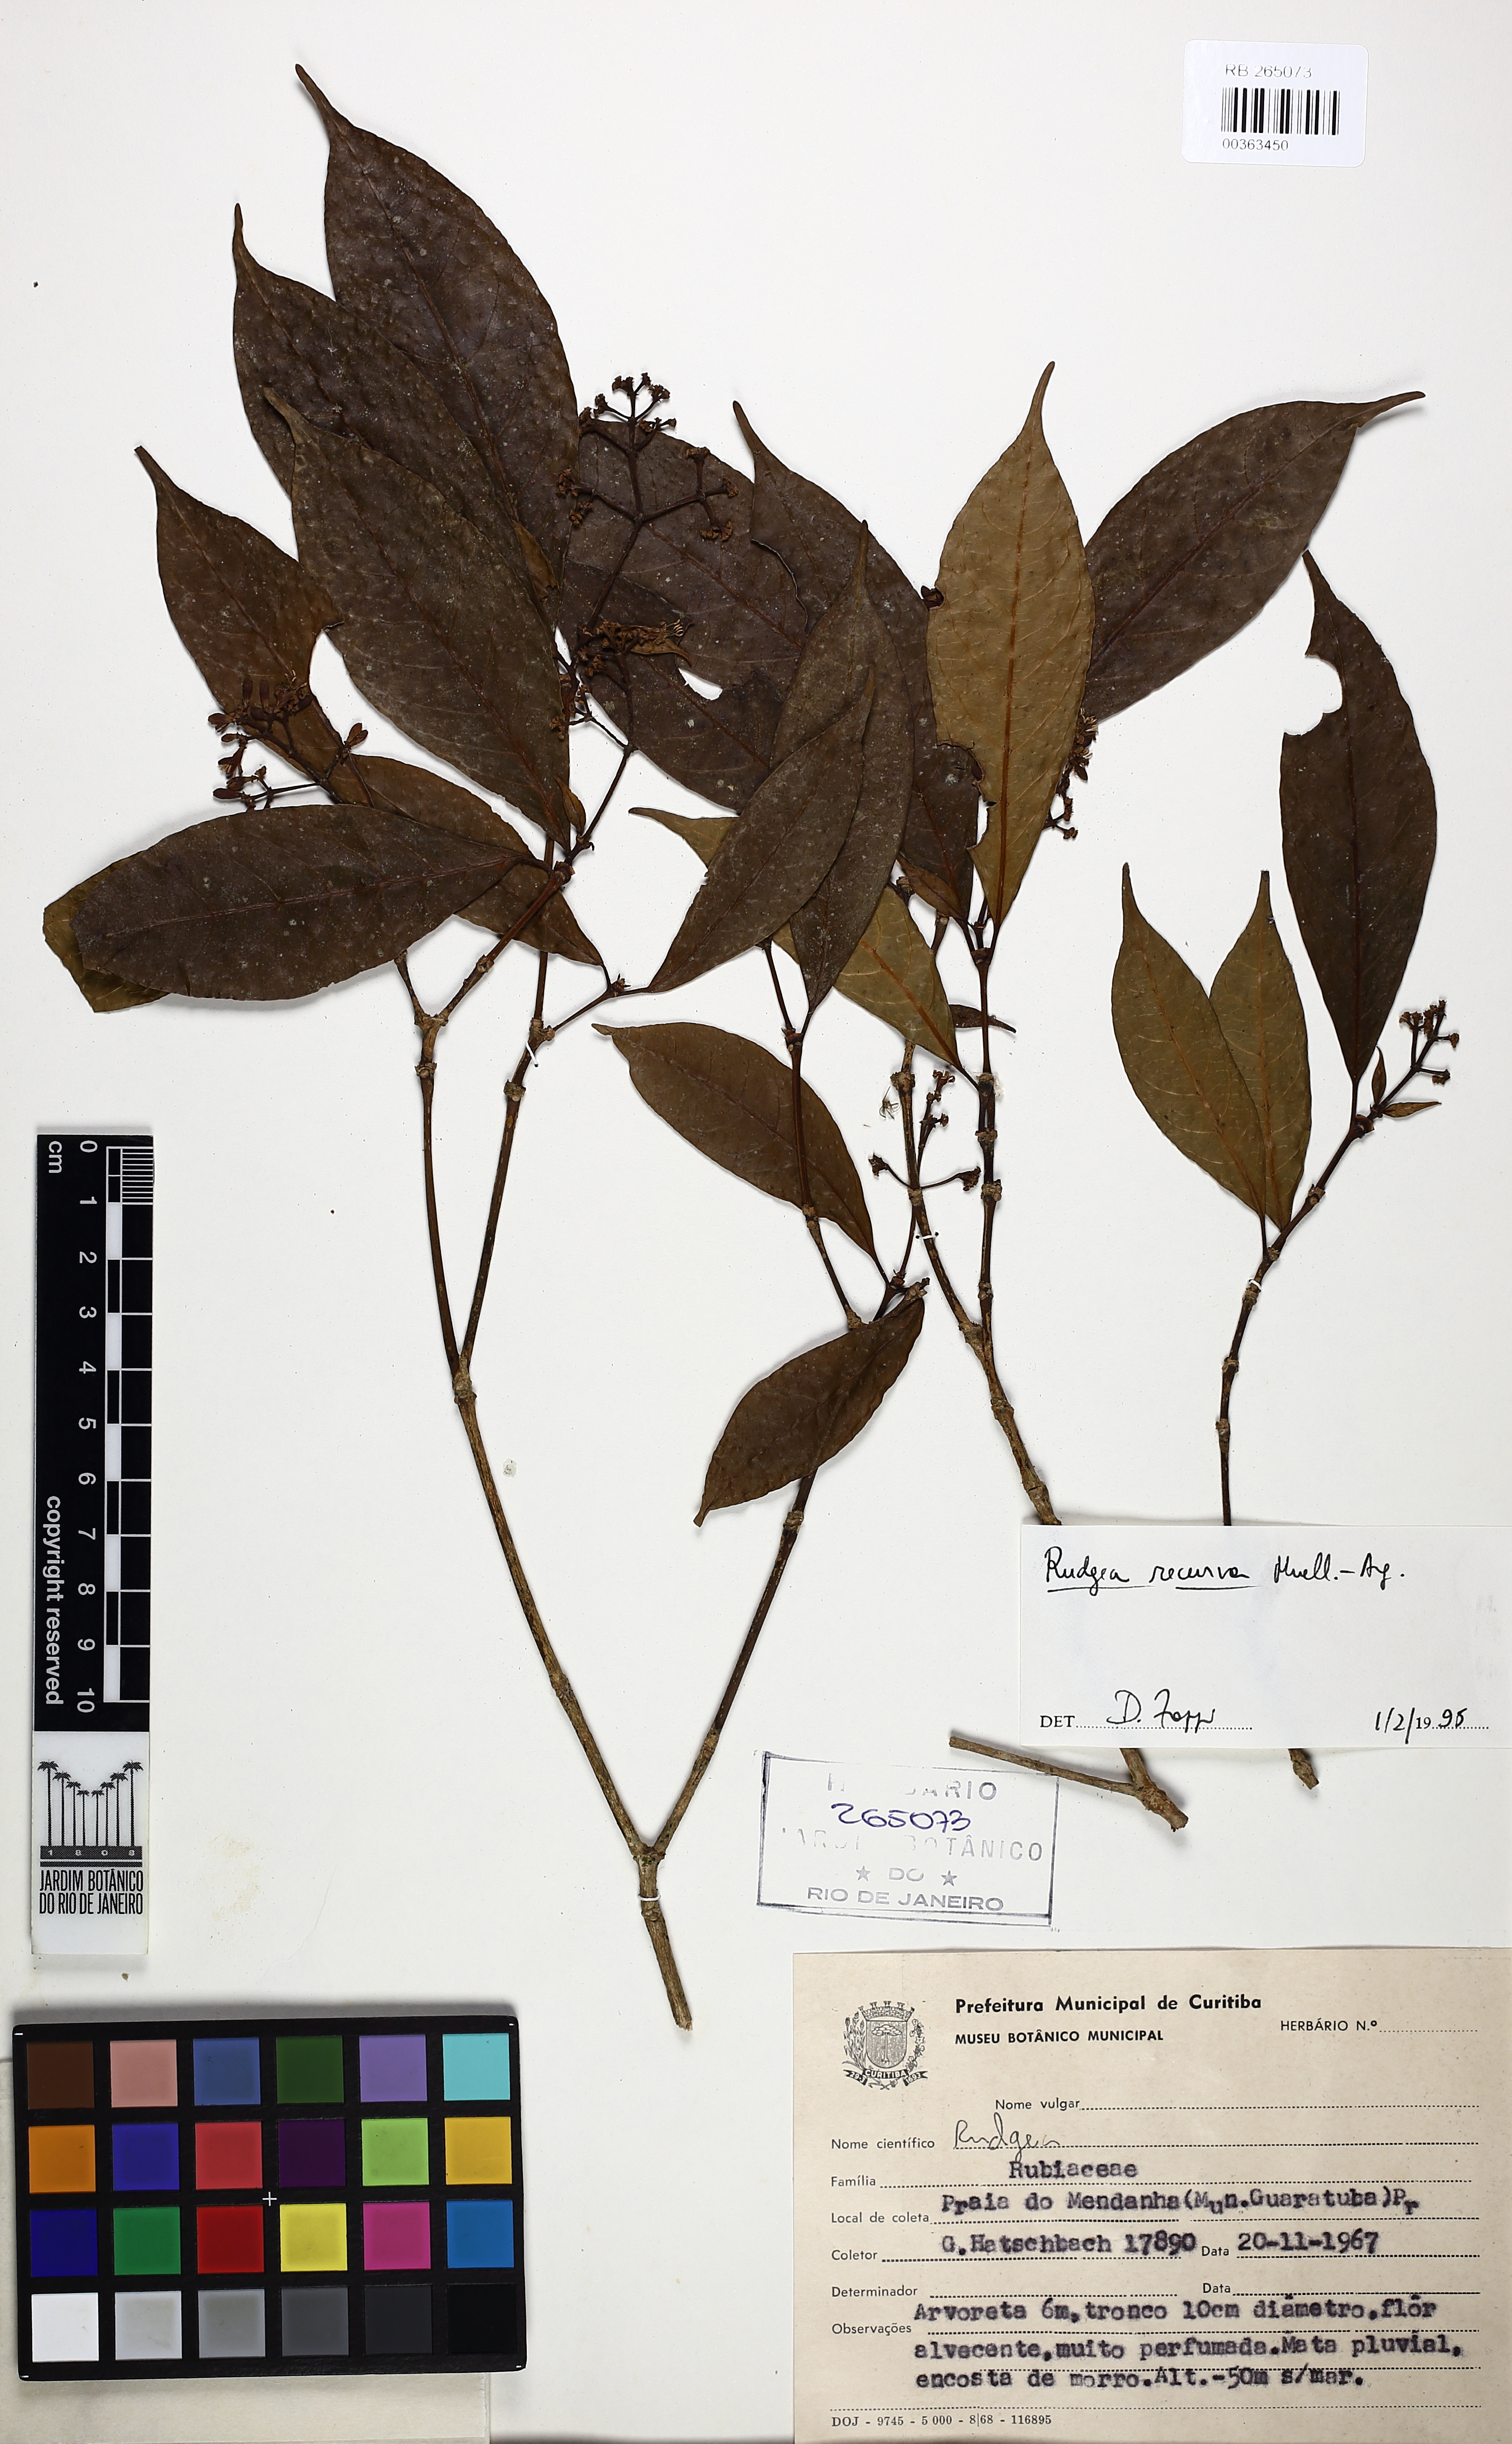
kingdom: Plantae
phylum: Tracheophyta
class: Magnoliopsida
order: Gentianales
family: Rubiaceae
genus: Rudgea
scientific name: Rudgea recurva
